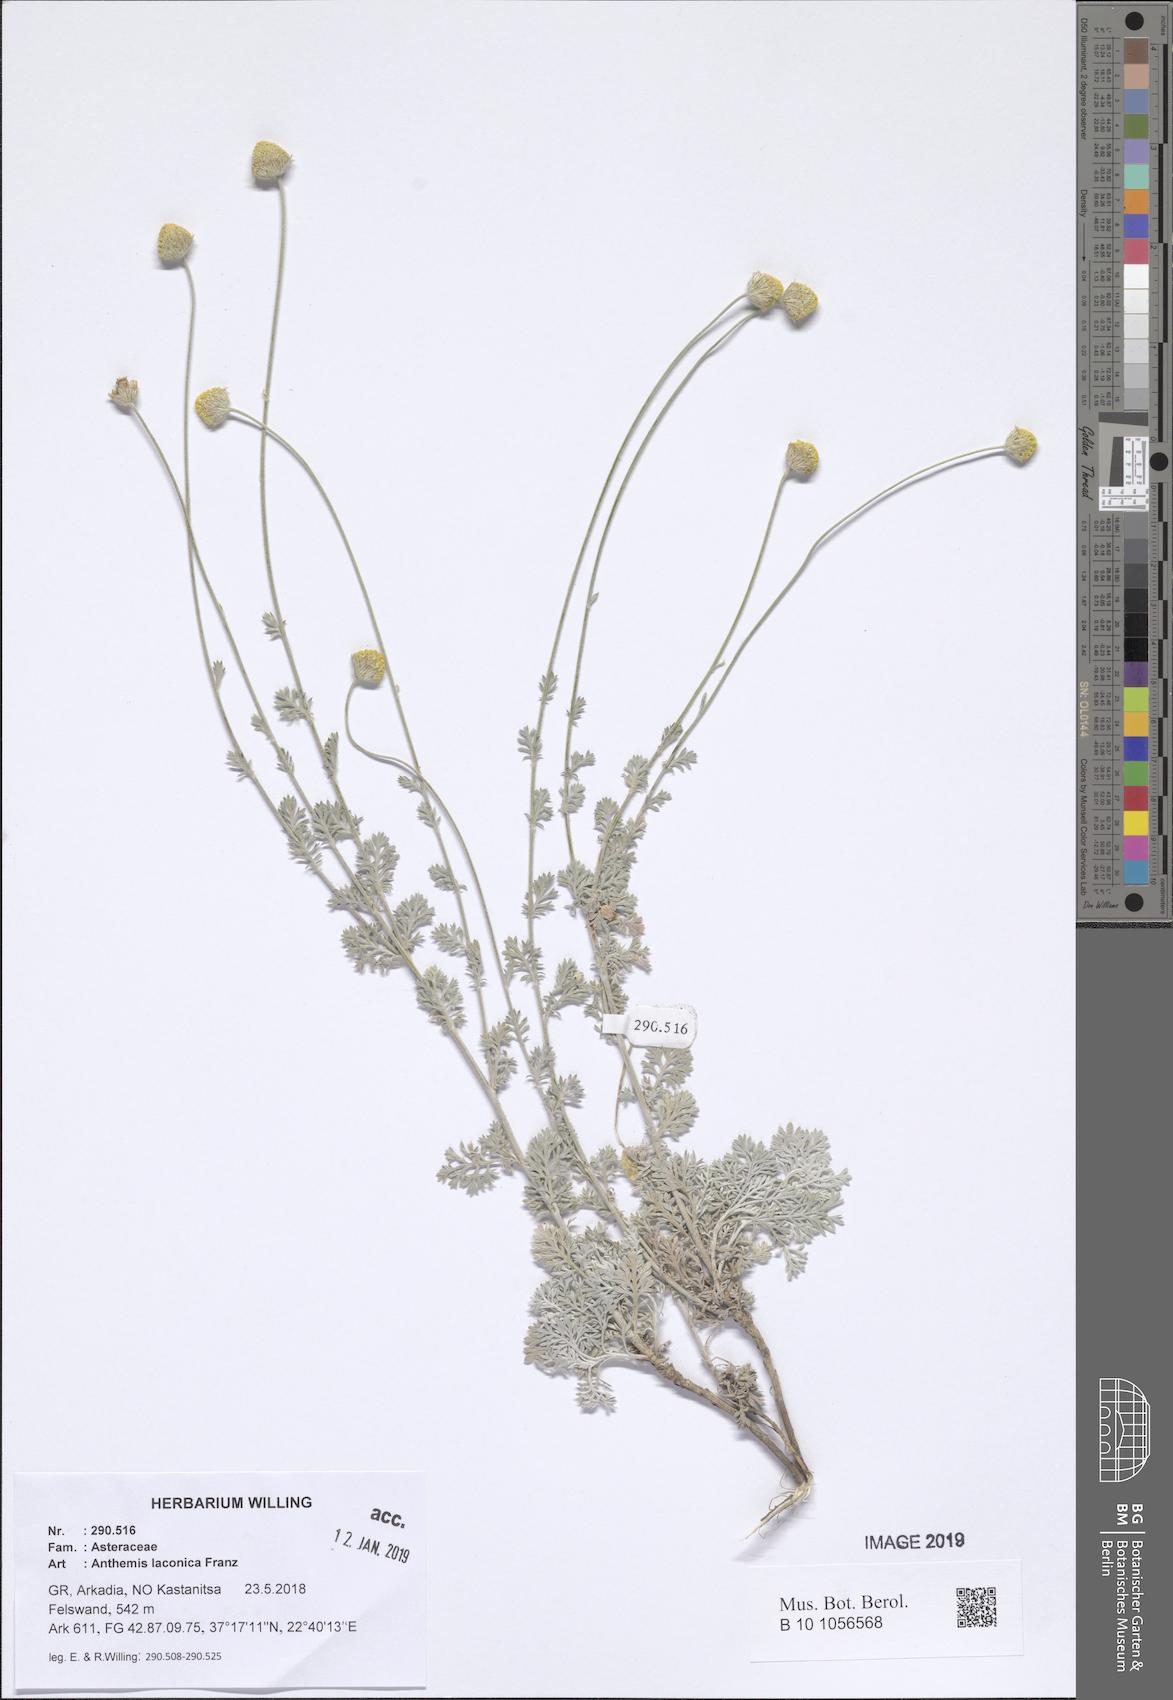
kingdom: Plantae
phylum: Tracheophyta
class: Magnoliopsida
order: Asterales
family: Asteraceae
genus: Anthemis
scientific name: Anthemis laconica
